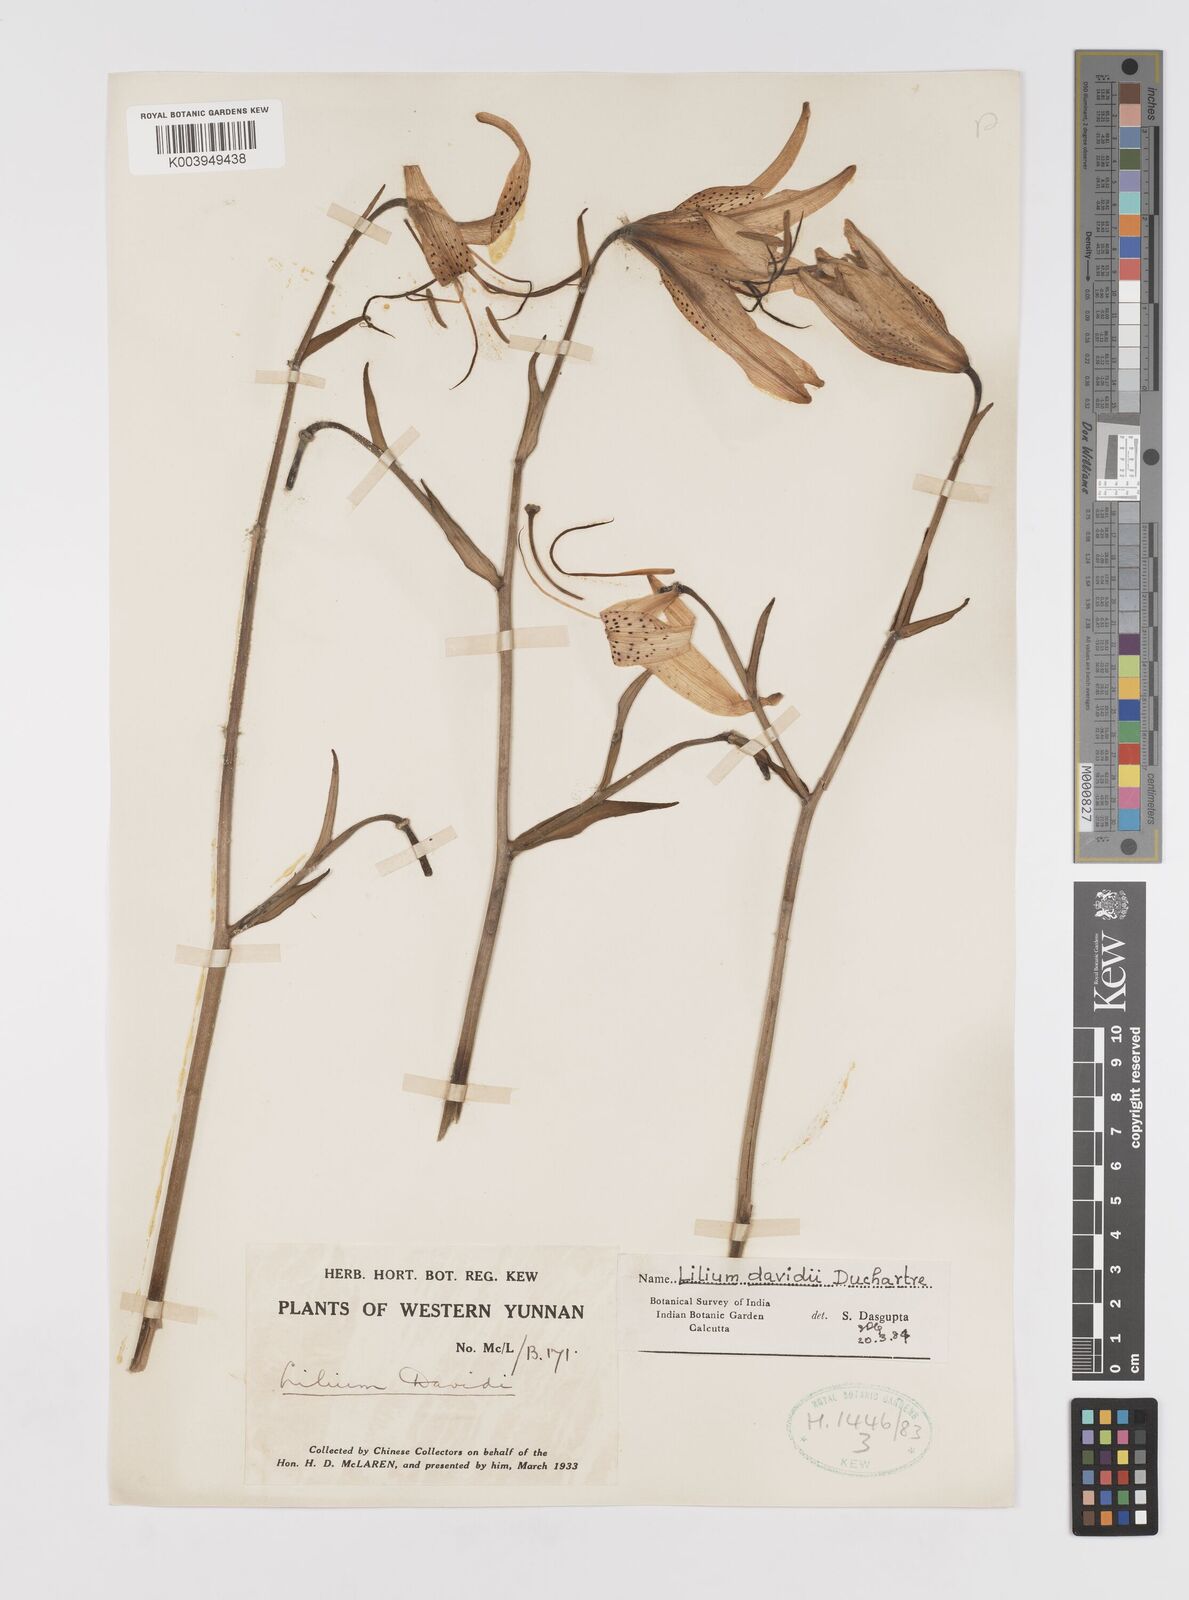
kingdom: Plantae
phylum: Tracheophyta
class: Liliopsida
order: Liliales
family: Liliaceae
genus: Lilium
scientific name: Lilium davidii
